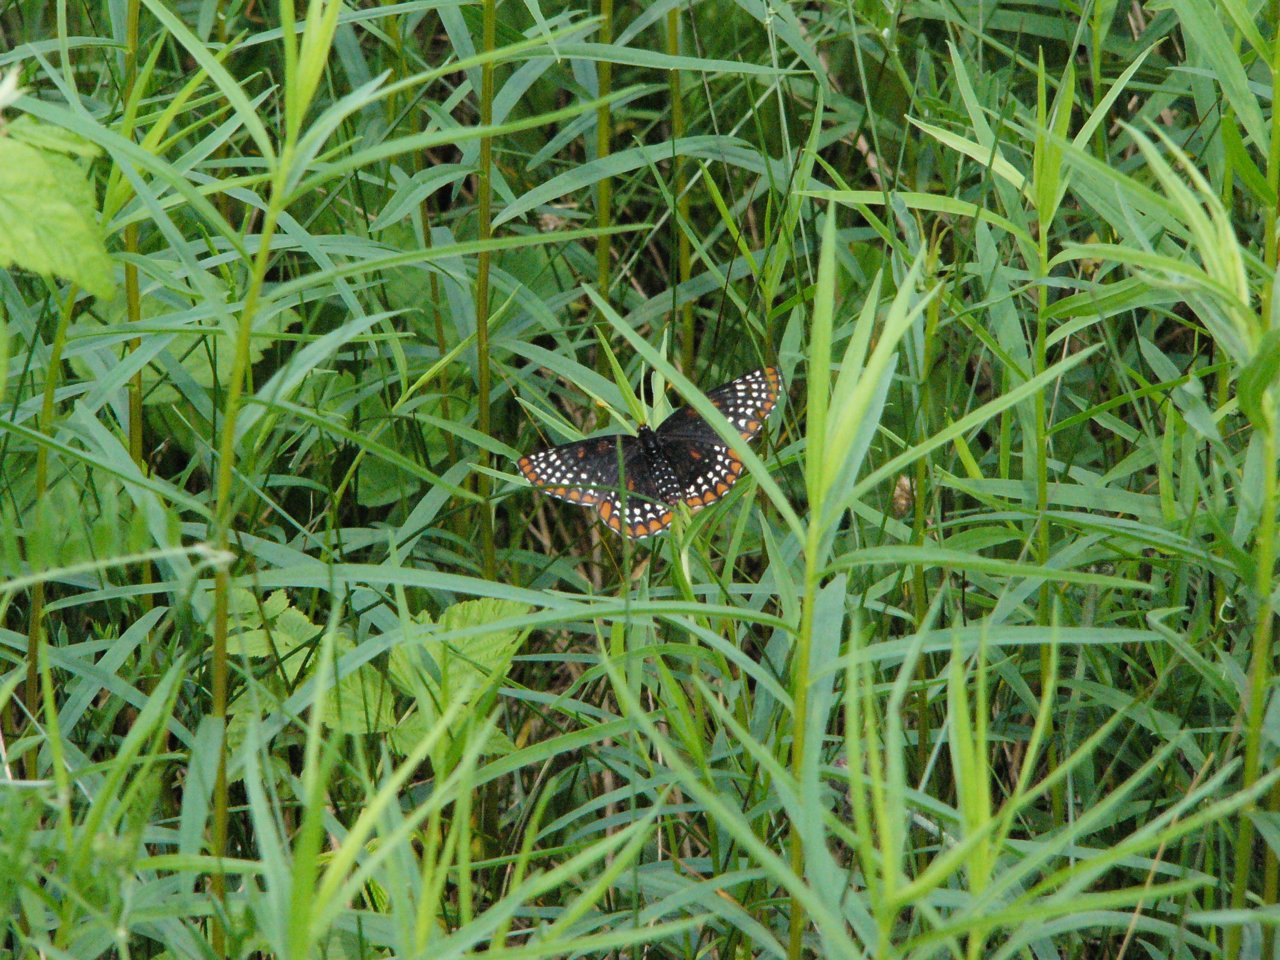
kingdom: Animalia
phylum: Arthropoda
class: Insecta
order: Lepidoptera
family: Nymphalidae
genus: Euphydryas
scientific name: Euphydryas phaeton
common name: Baltimore Checkerspot
